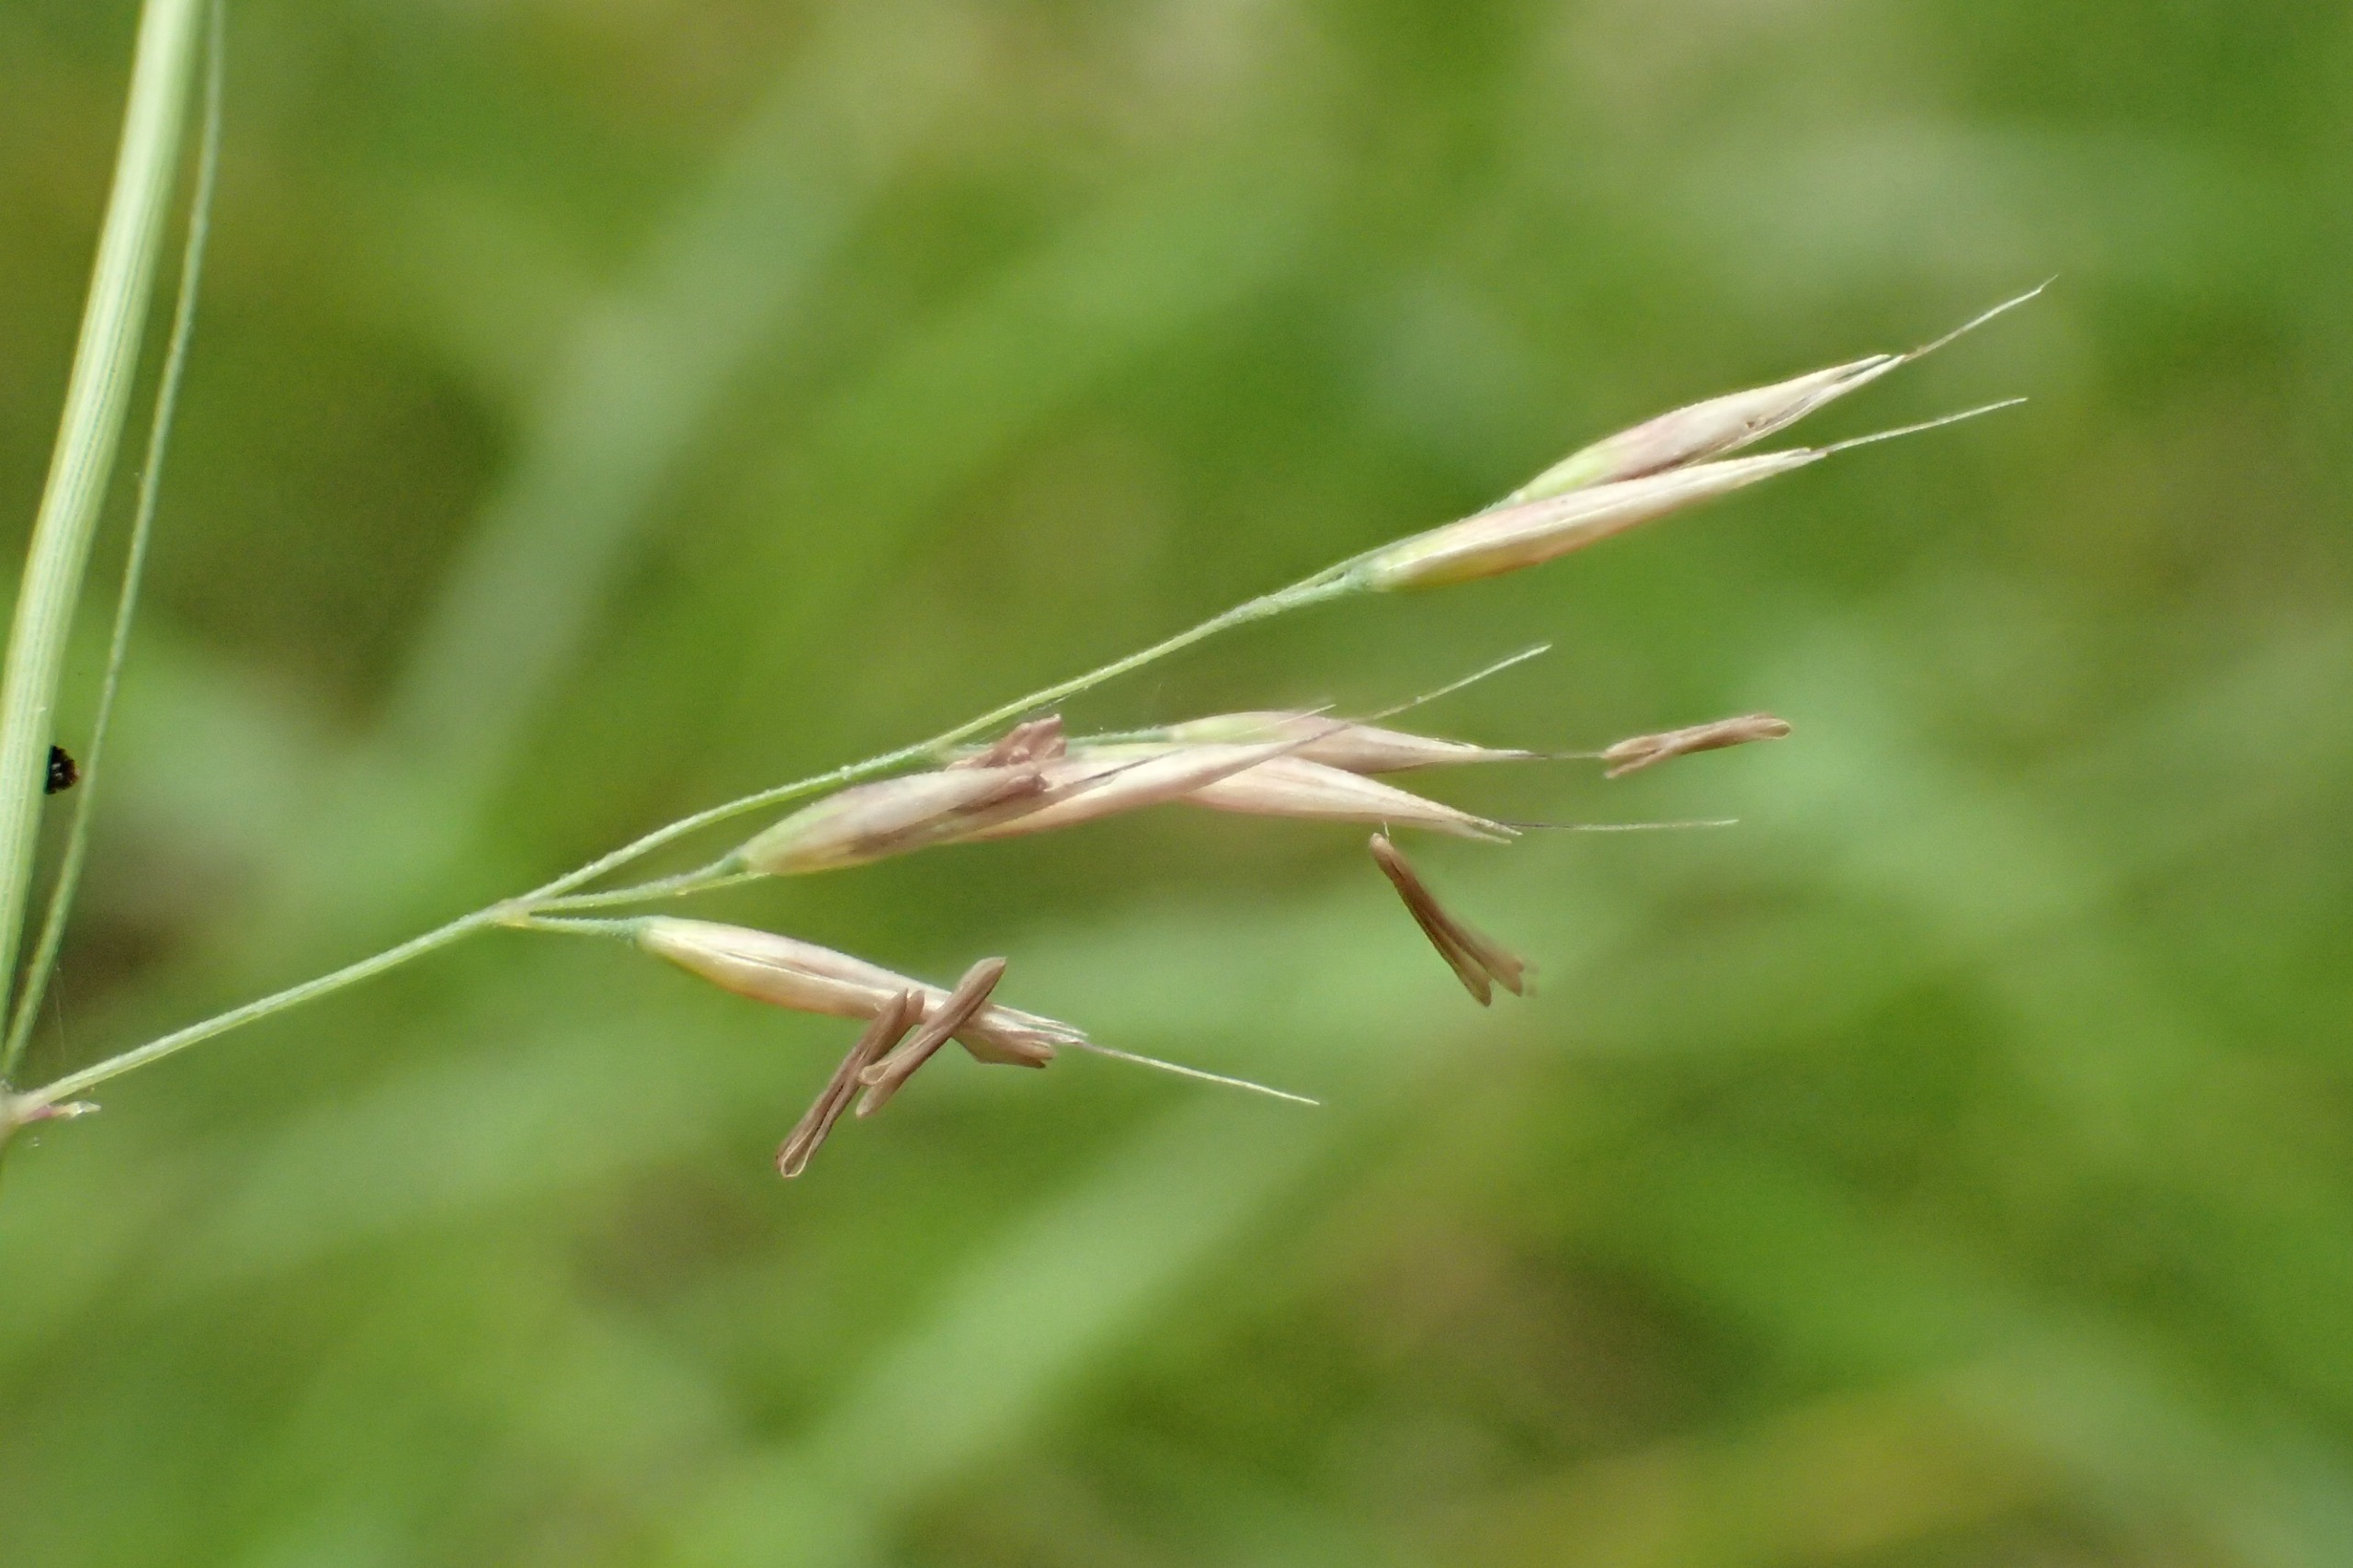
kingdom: Plantae
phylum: Tracheophyta
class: Liliopsida
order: Poales
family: Poaceae
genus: Calamagrostis
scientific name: Calamagrostis arundinacea
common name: Skov-rørhvene
